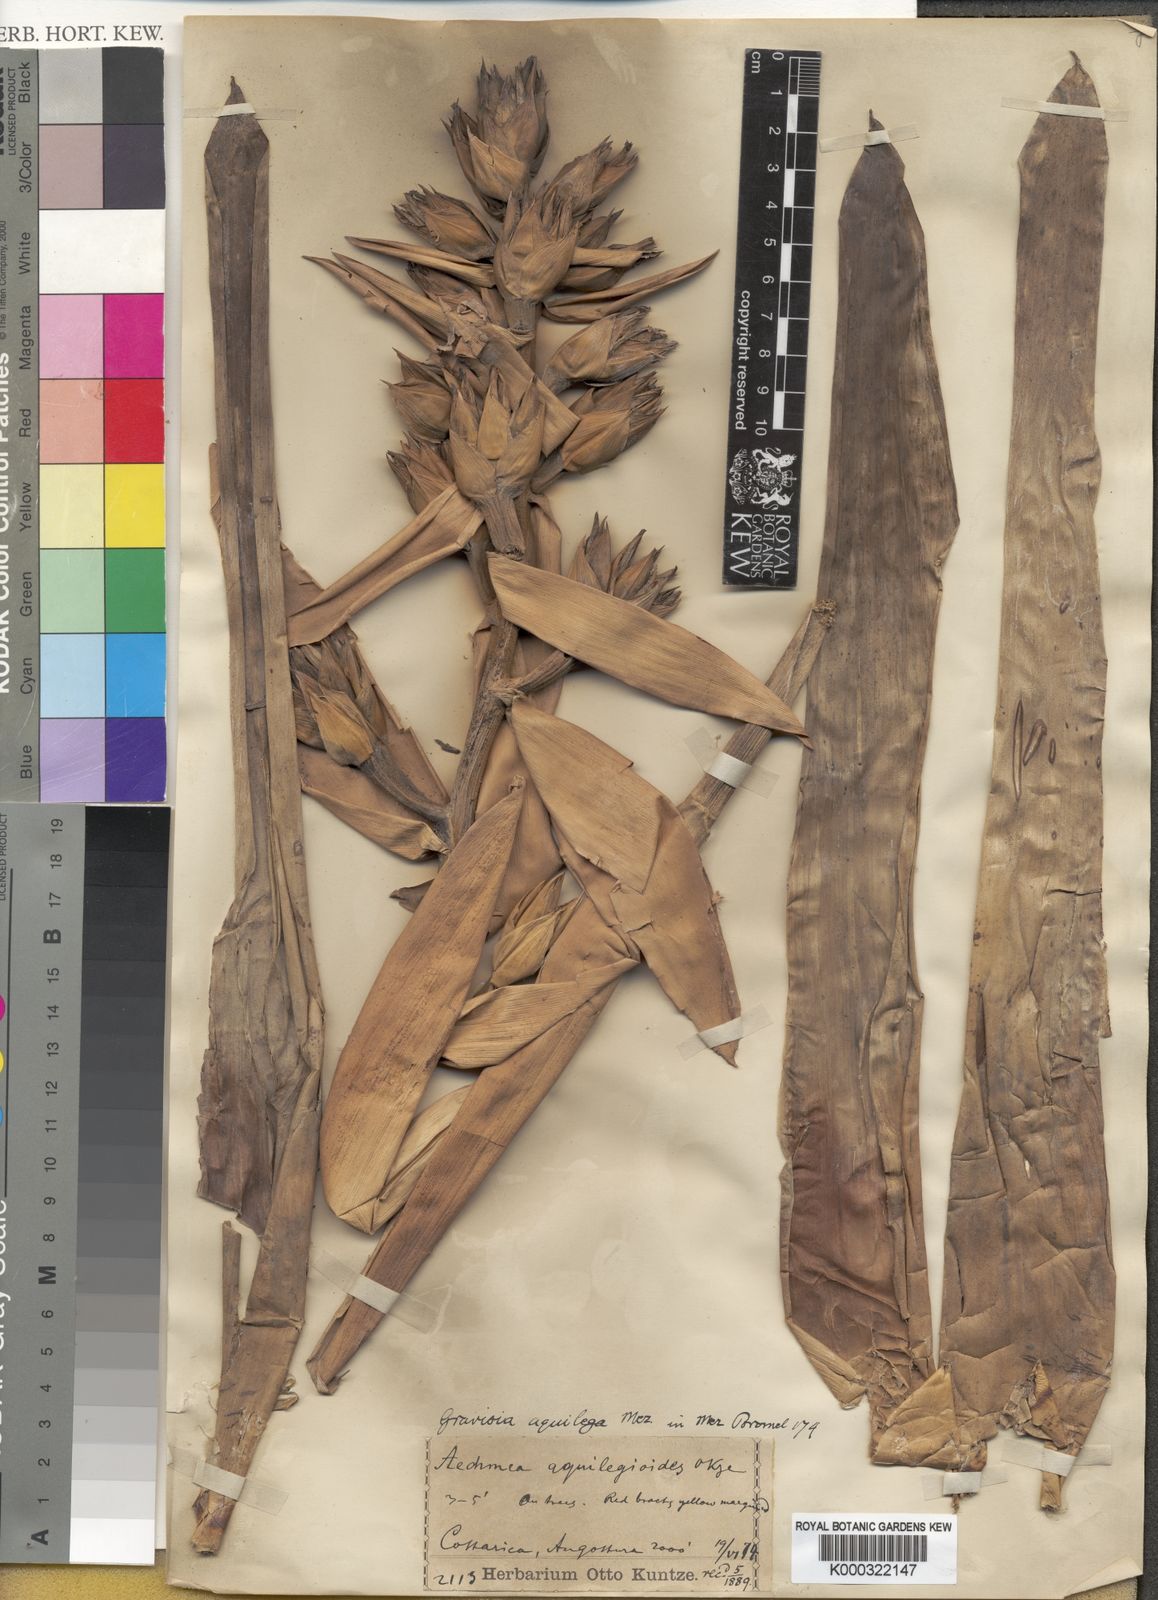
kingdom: Plantae
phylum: Tracheophyta
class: Liliopsida
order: Poales
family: Bromeliaceae
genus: Aechmea
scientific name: Aechmea aquilega
